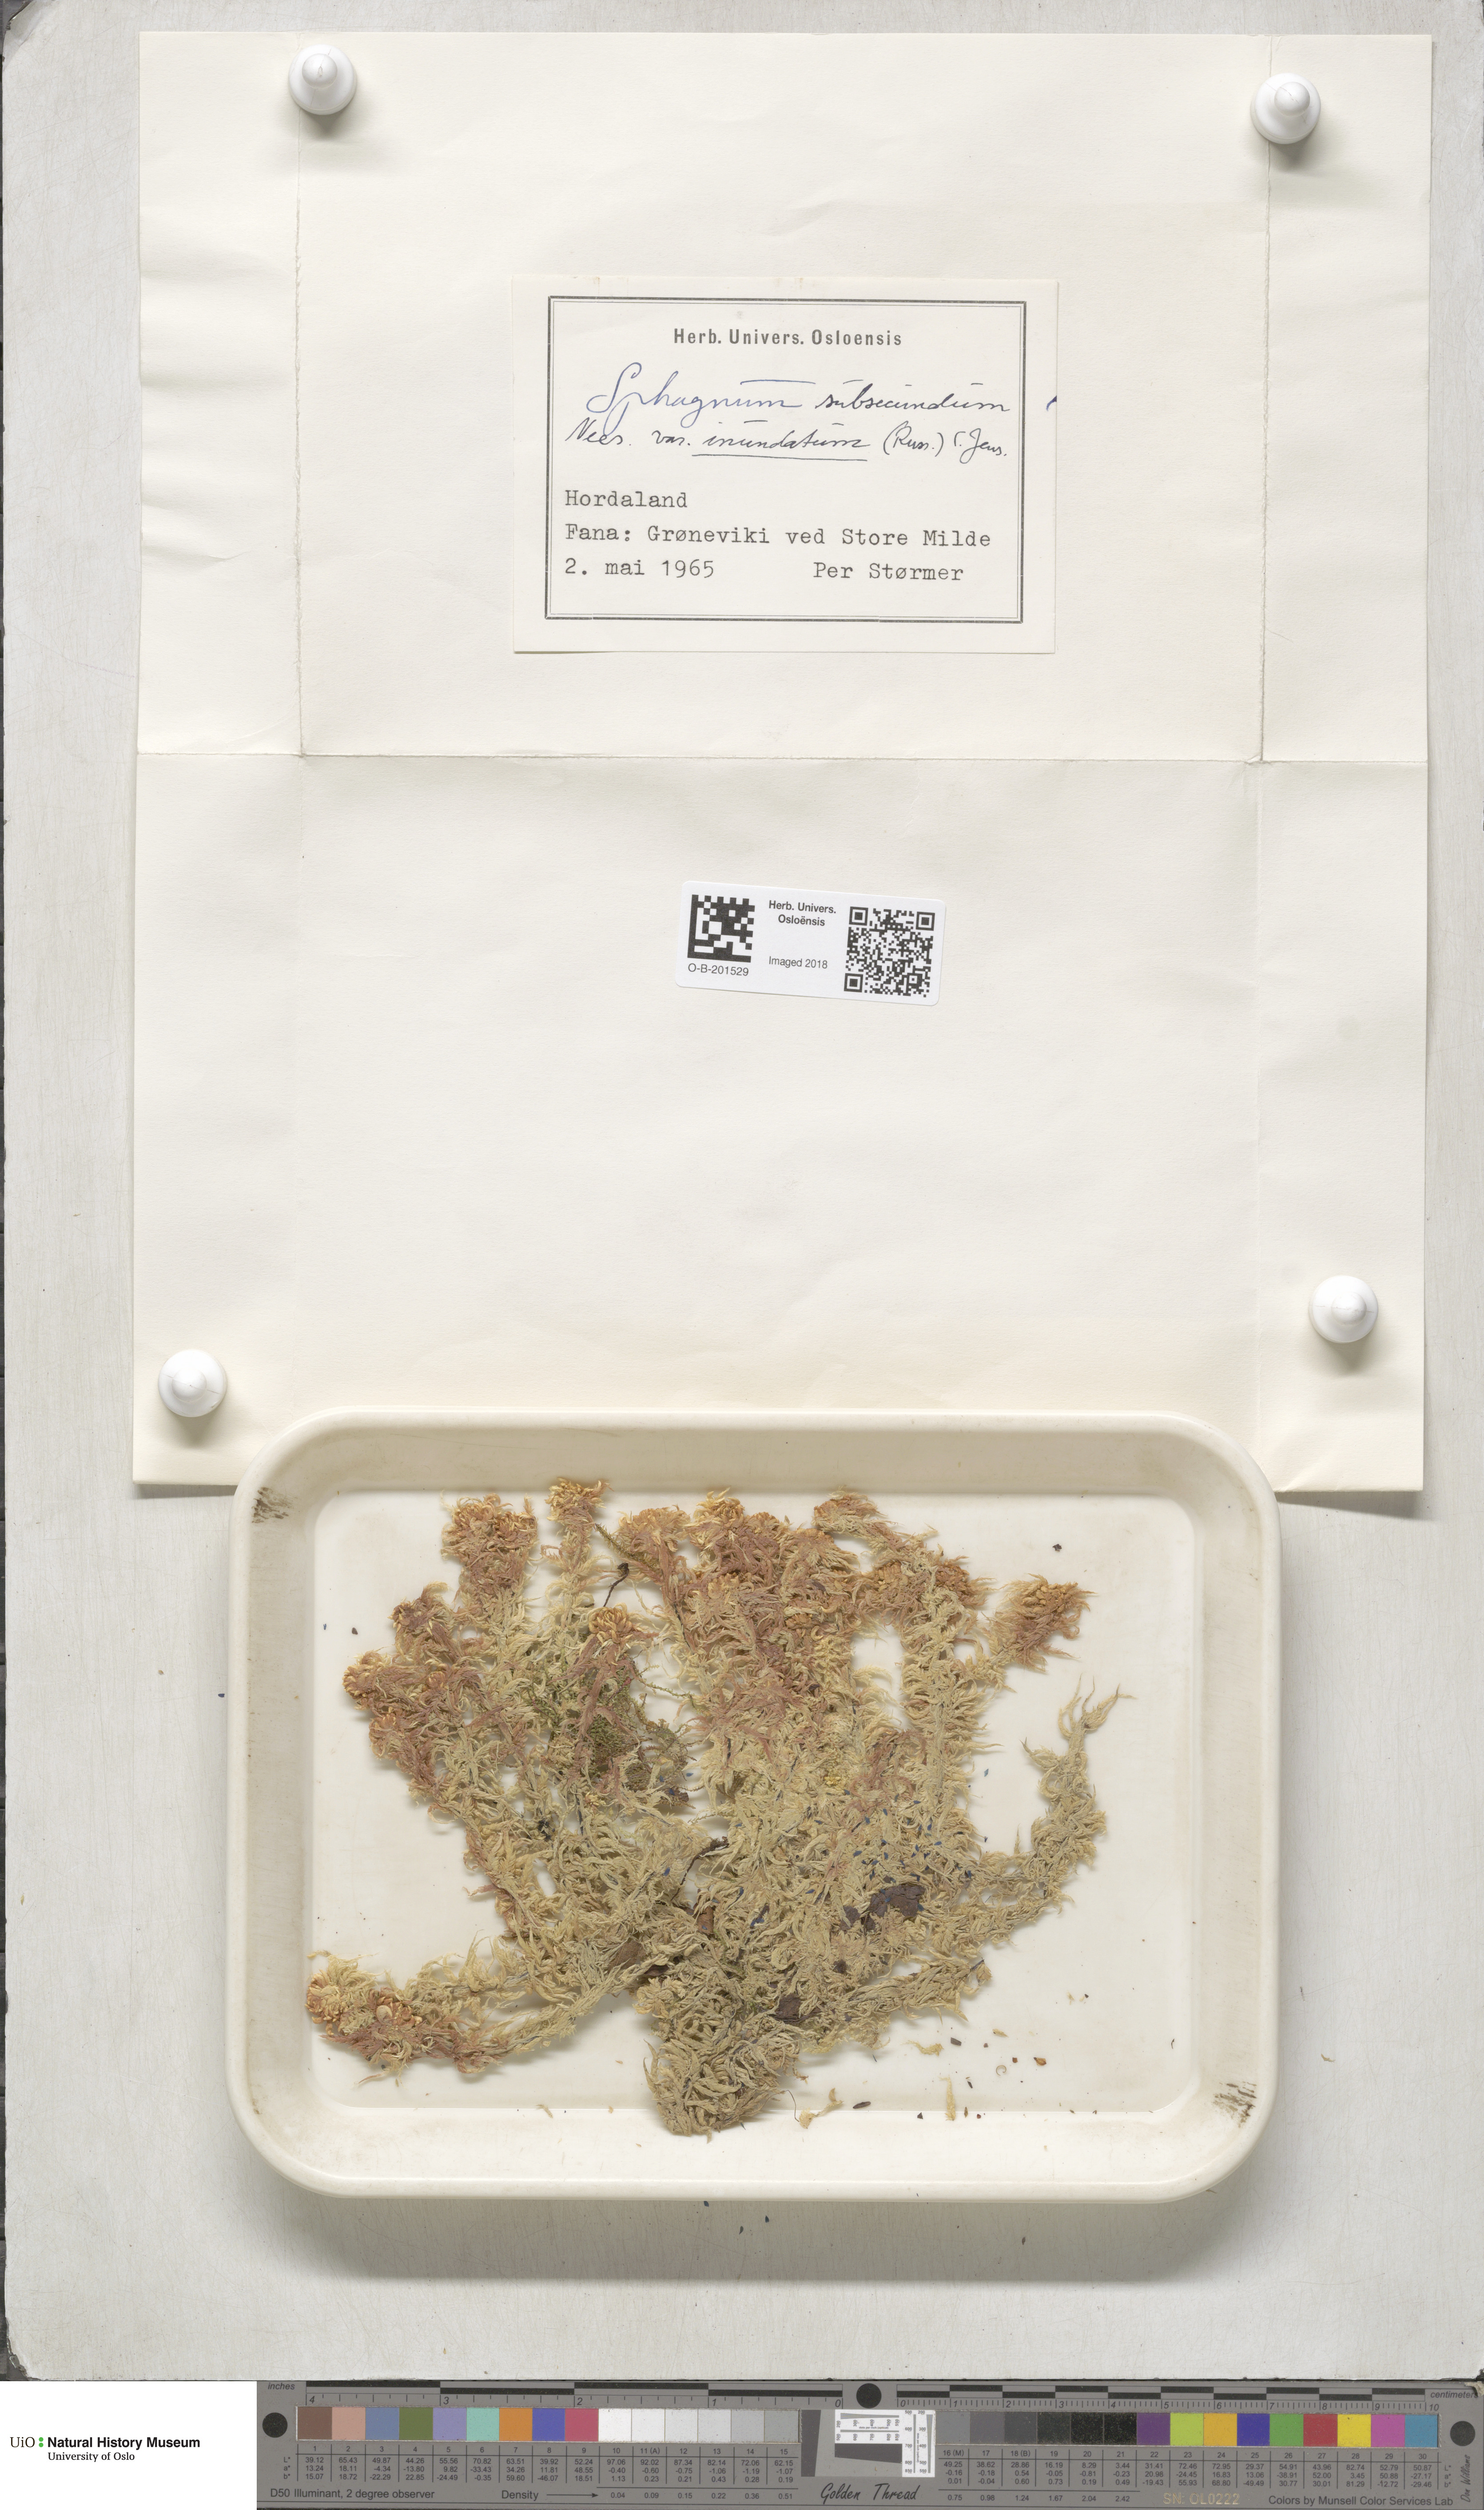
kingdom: Plantae
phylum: Bryophyta
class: Sphagnopsida
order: Sphagnales
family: Sphagnaceae
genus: Sphagnum
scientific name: Sphagnum inundatum
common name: Lesser cow-horn bog-moss
